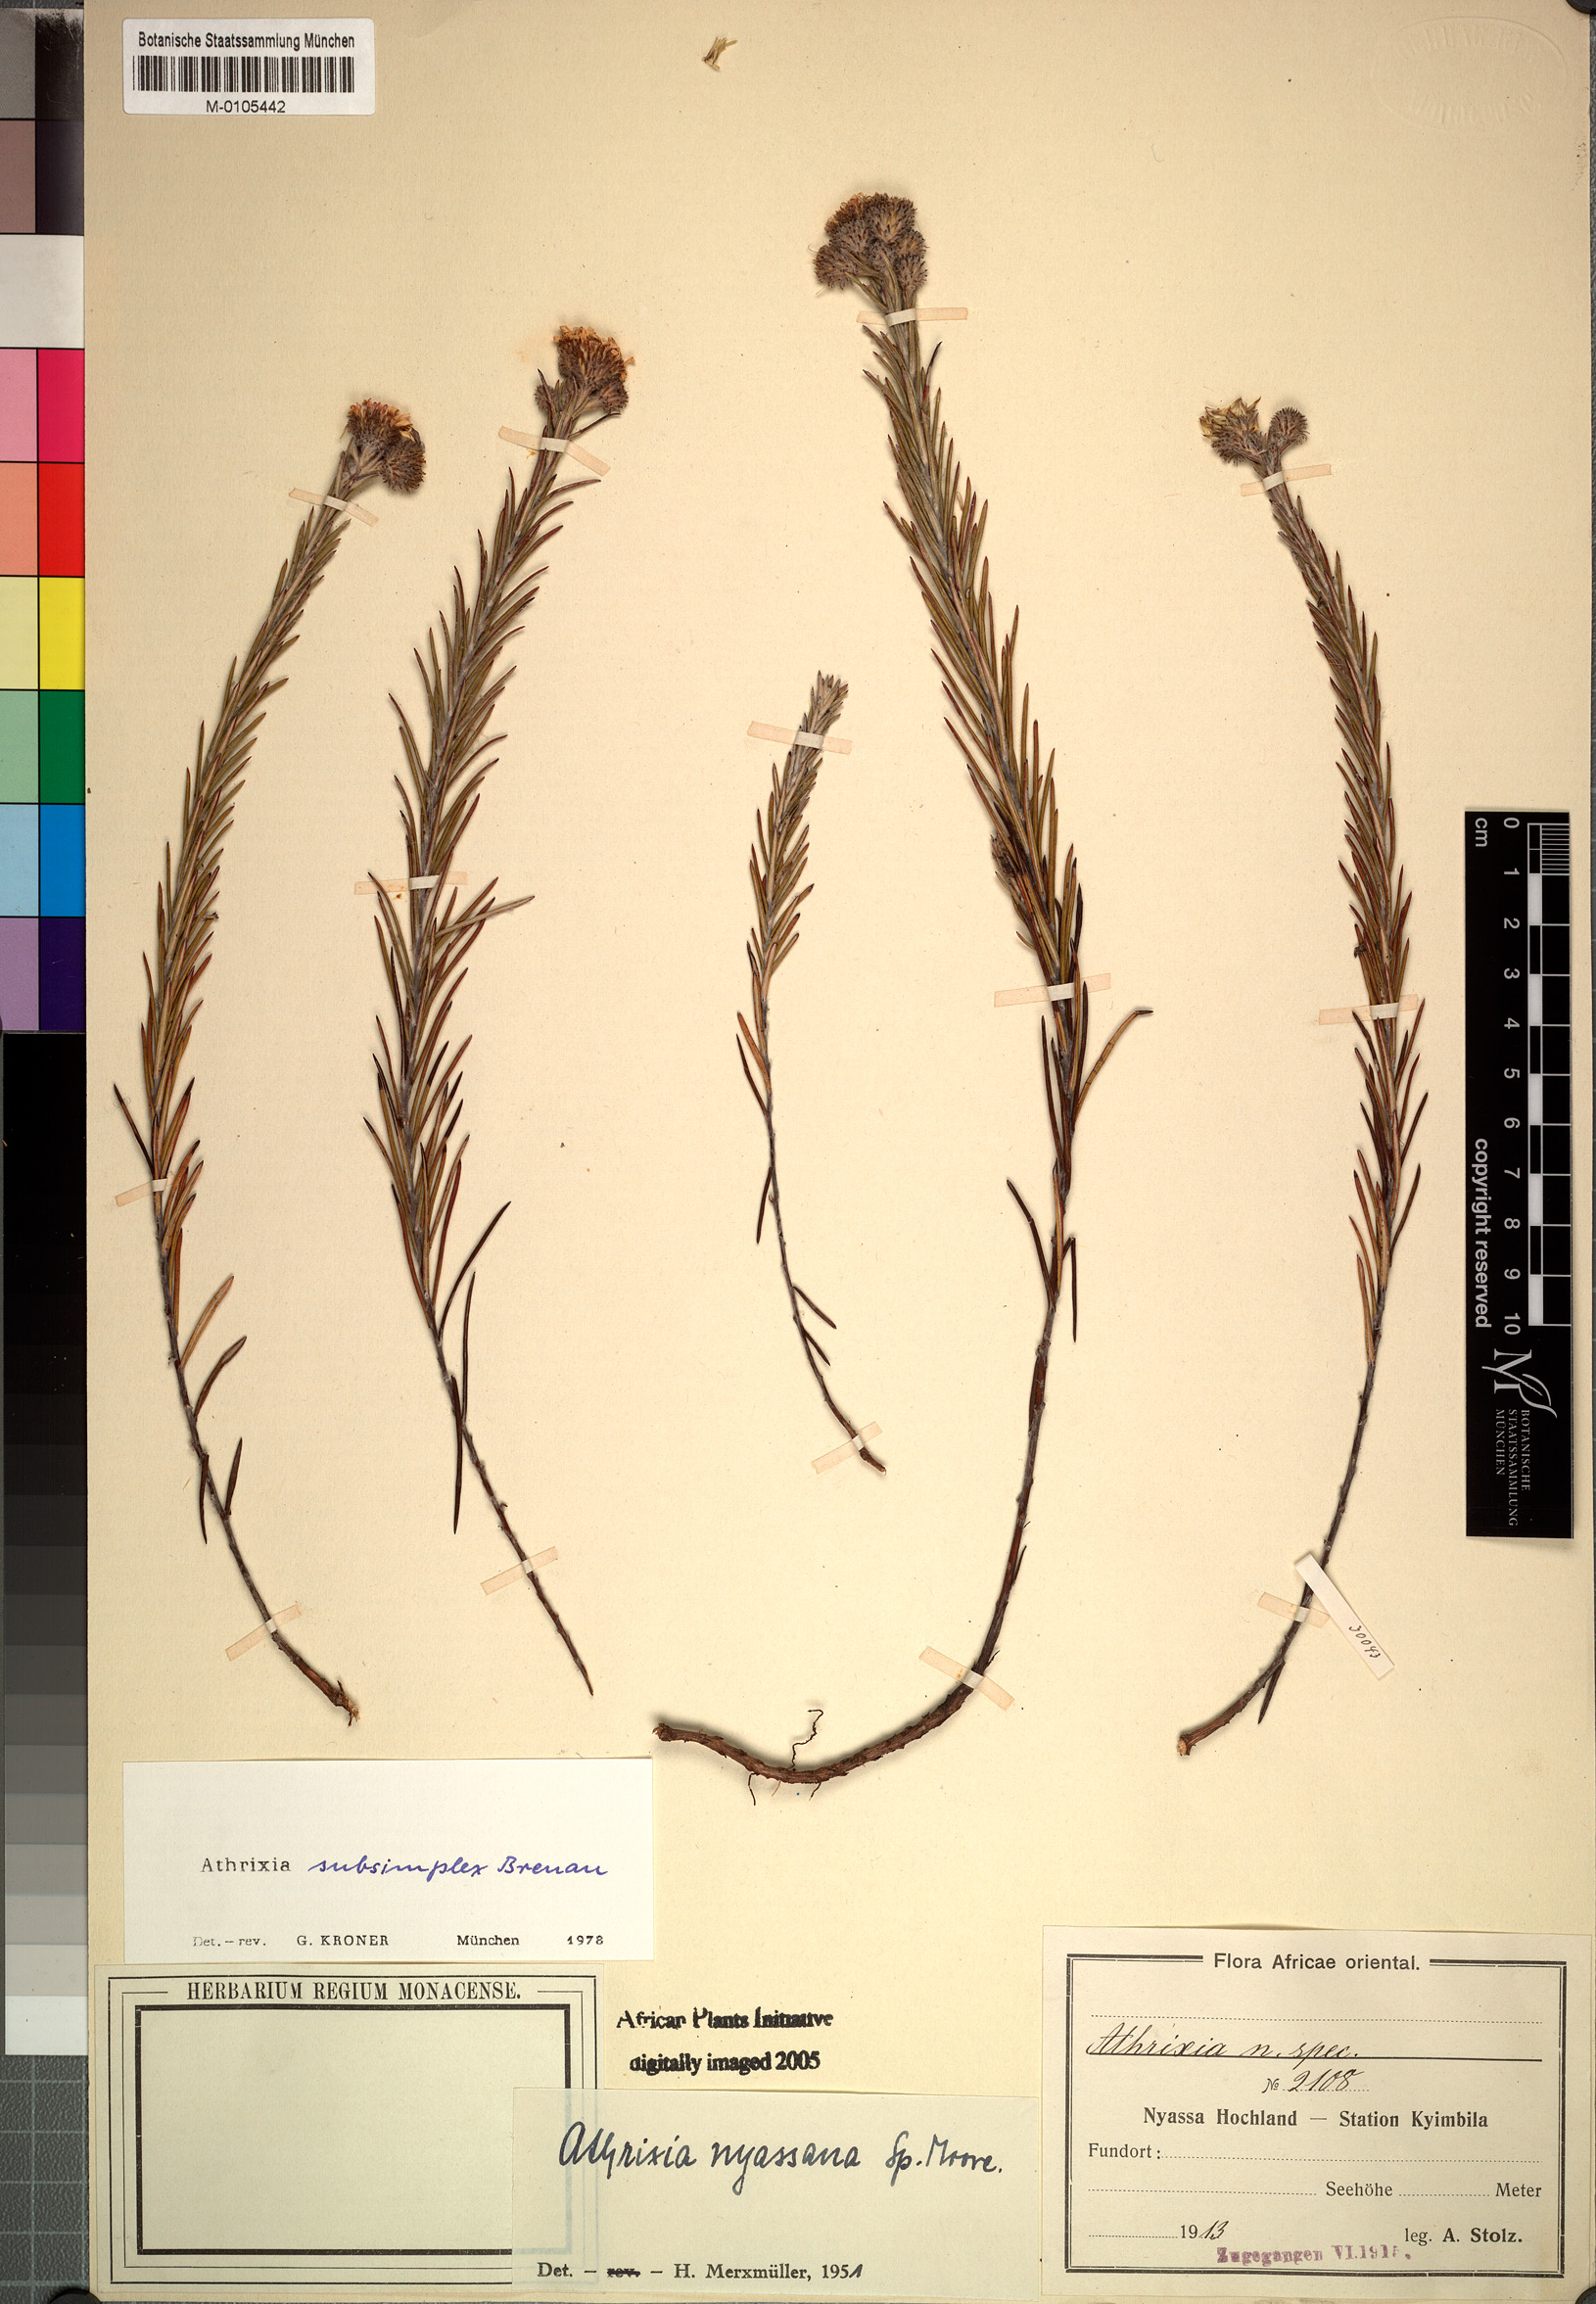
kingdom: Plantae
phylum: Tracheophyta
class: Magnoliopsida
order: Asterales
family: Asteraceae
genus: Athrixia
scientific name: Athrixia subsimplex
